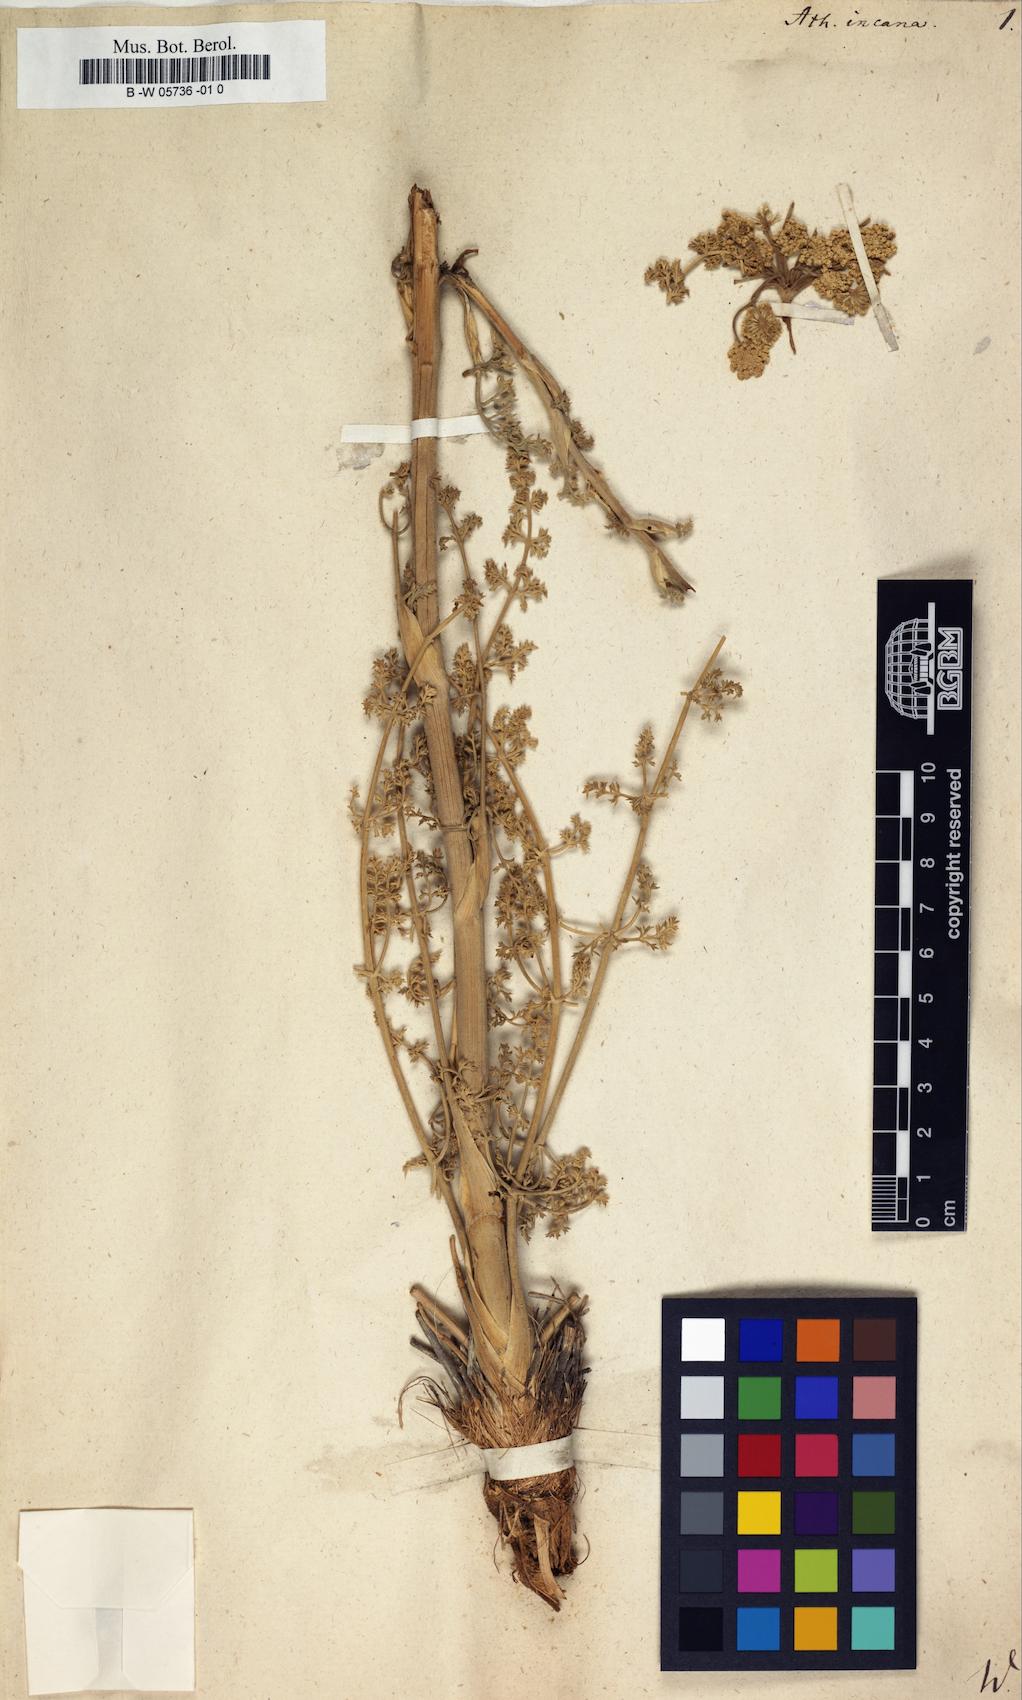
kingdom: Plantae
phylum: Tracheophyta
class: Magnoliopsida
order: Apiales
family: Apiaceae
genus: Seseli
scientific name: Seseli incanum
